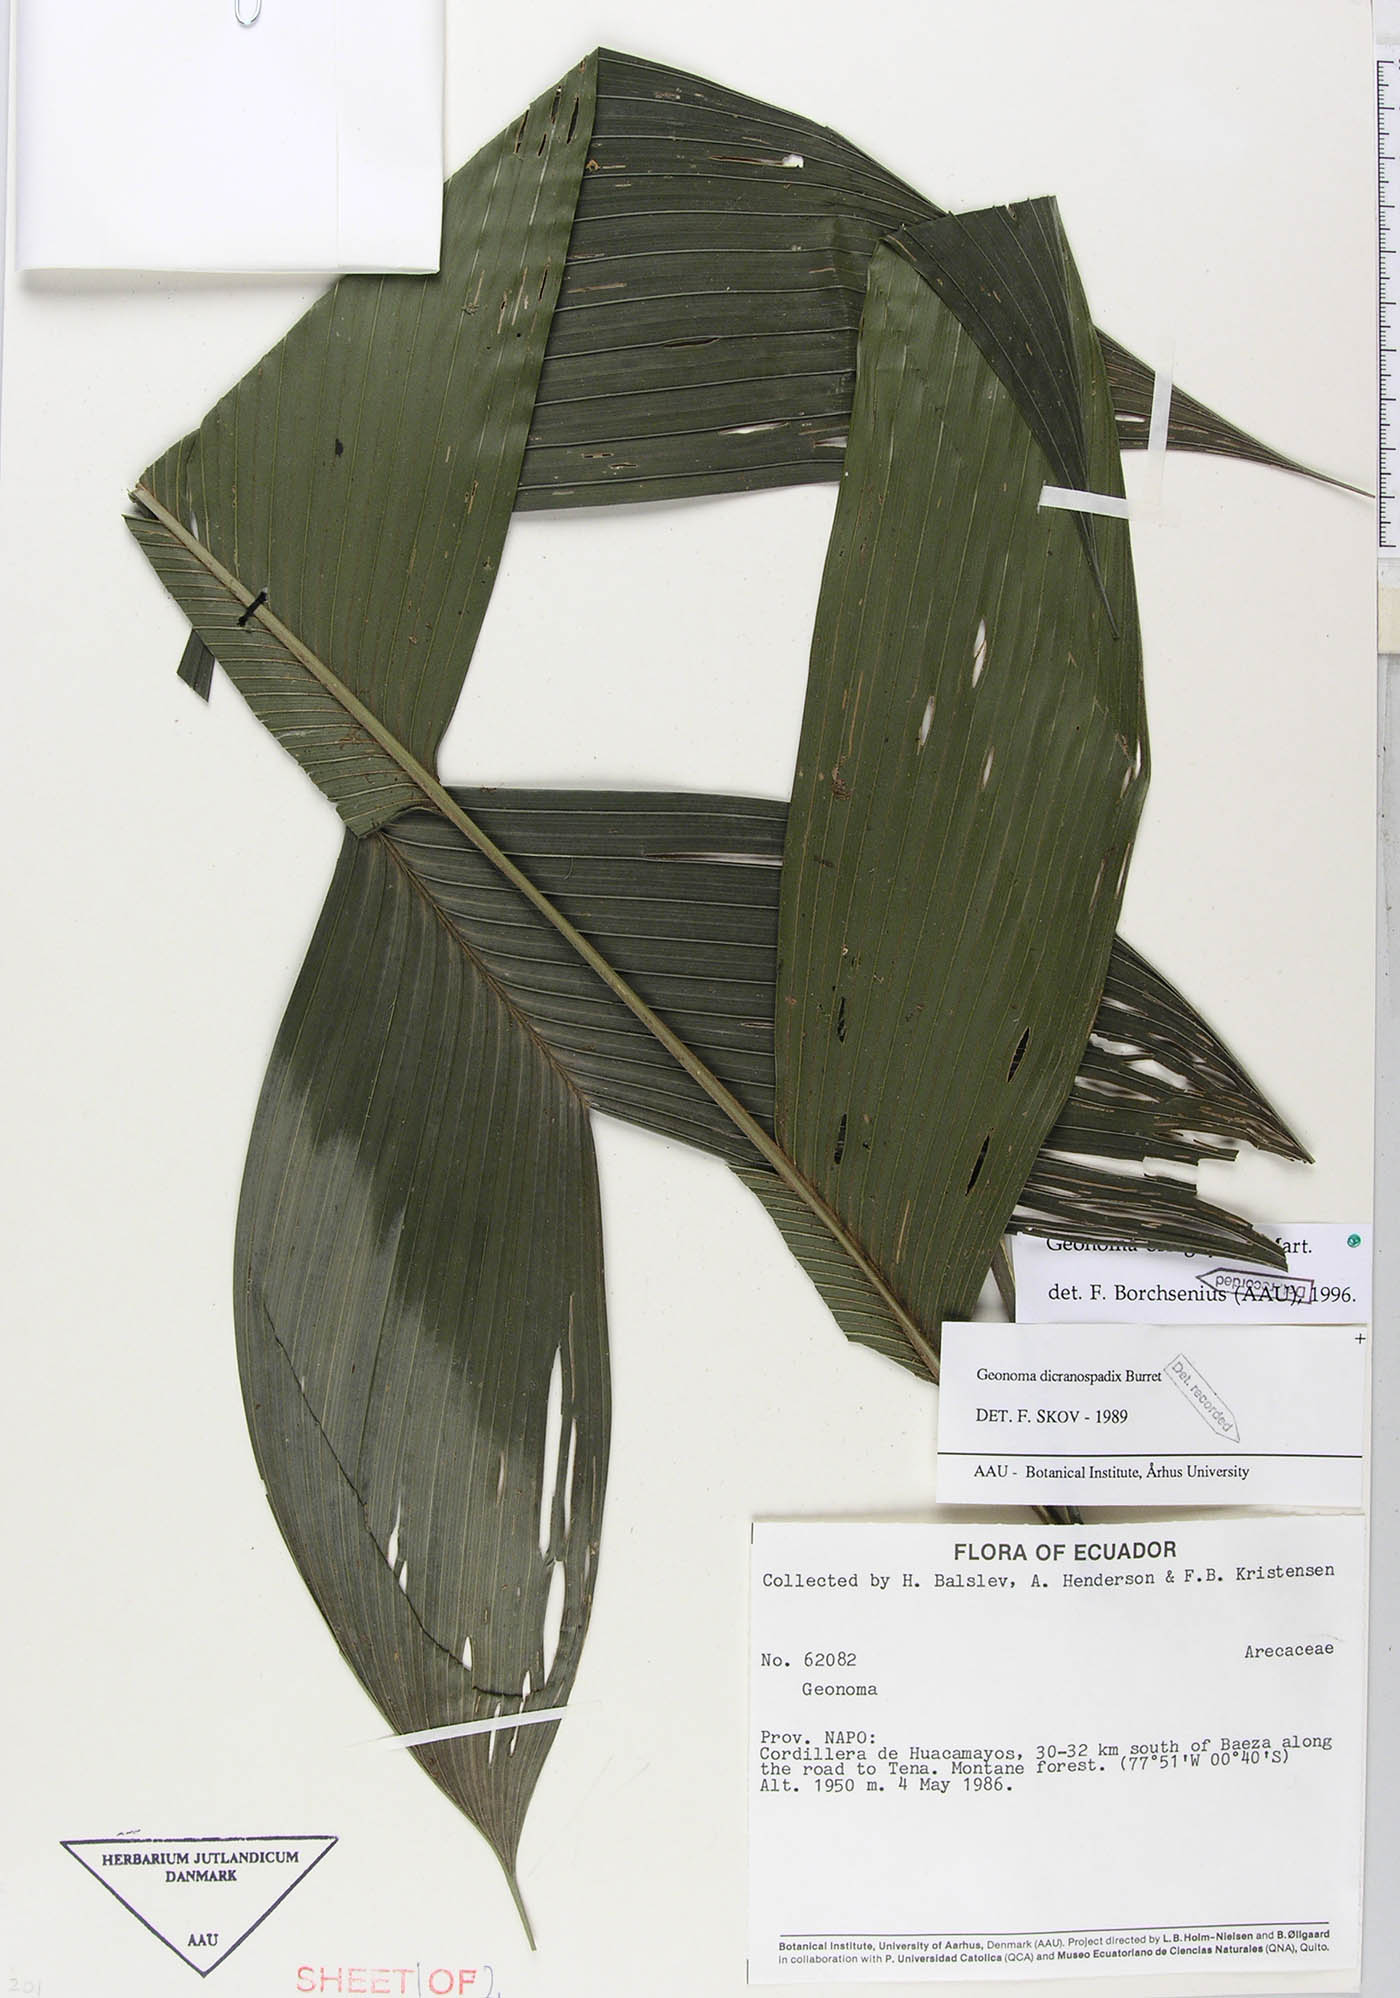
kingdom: Plantae
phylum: Tracheophyta
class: Liliopsida
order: Arecales
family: Arecaceae
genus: Geonoma
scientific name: Geonoma orbignyana
